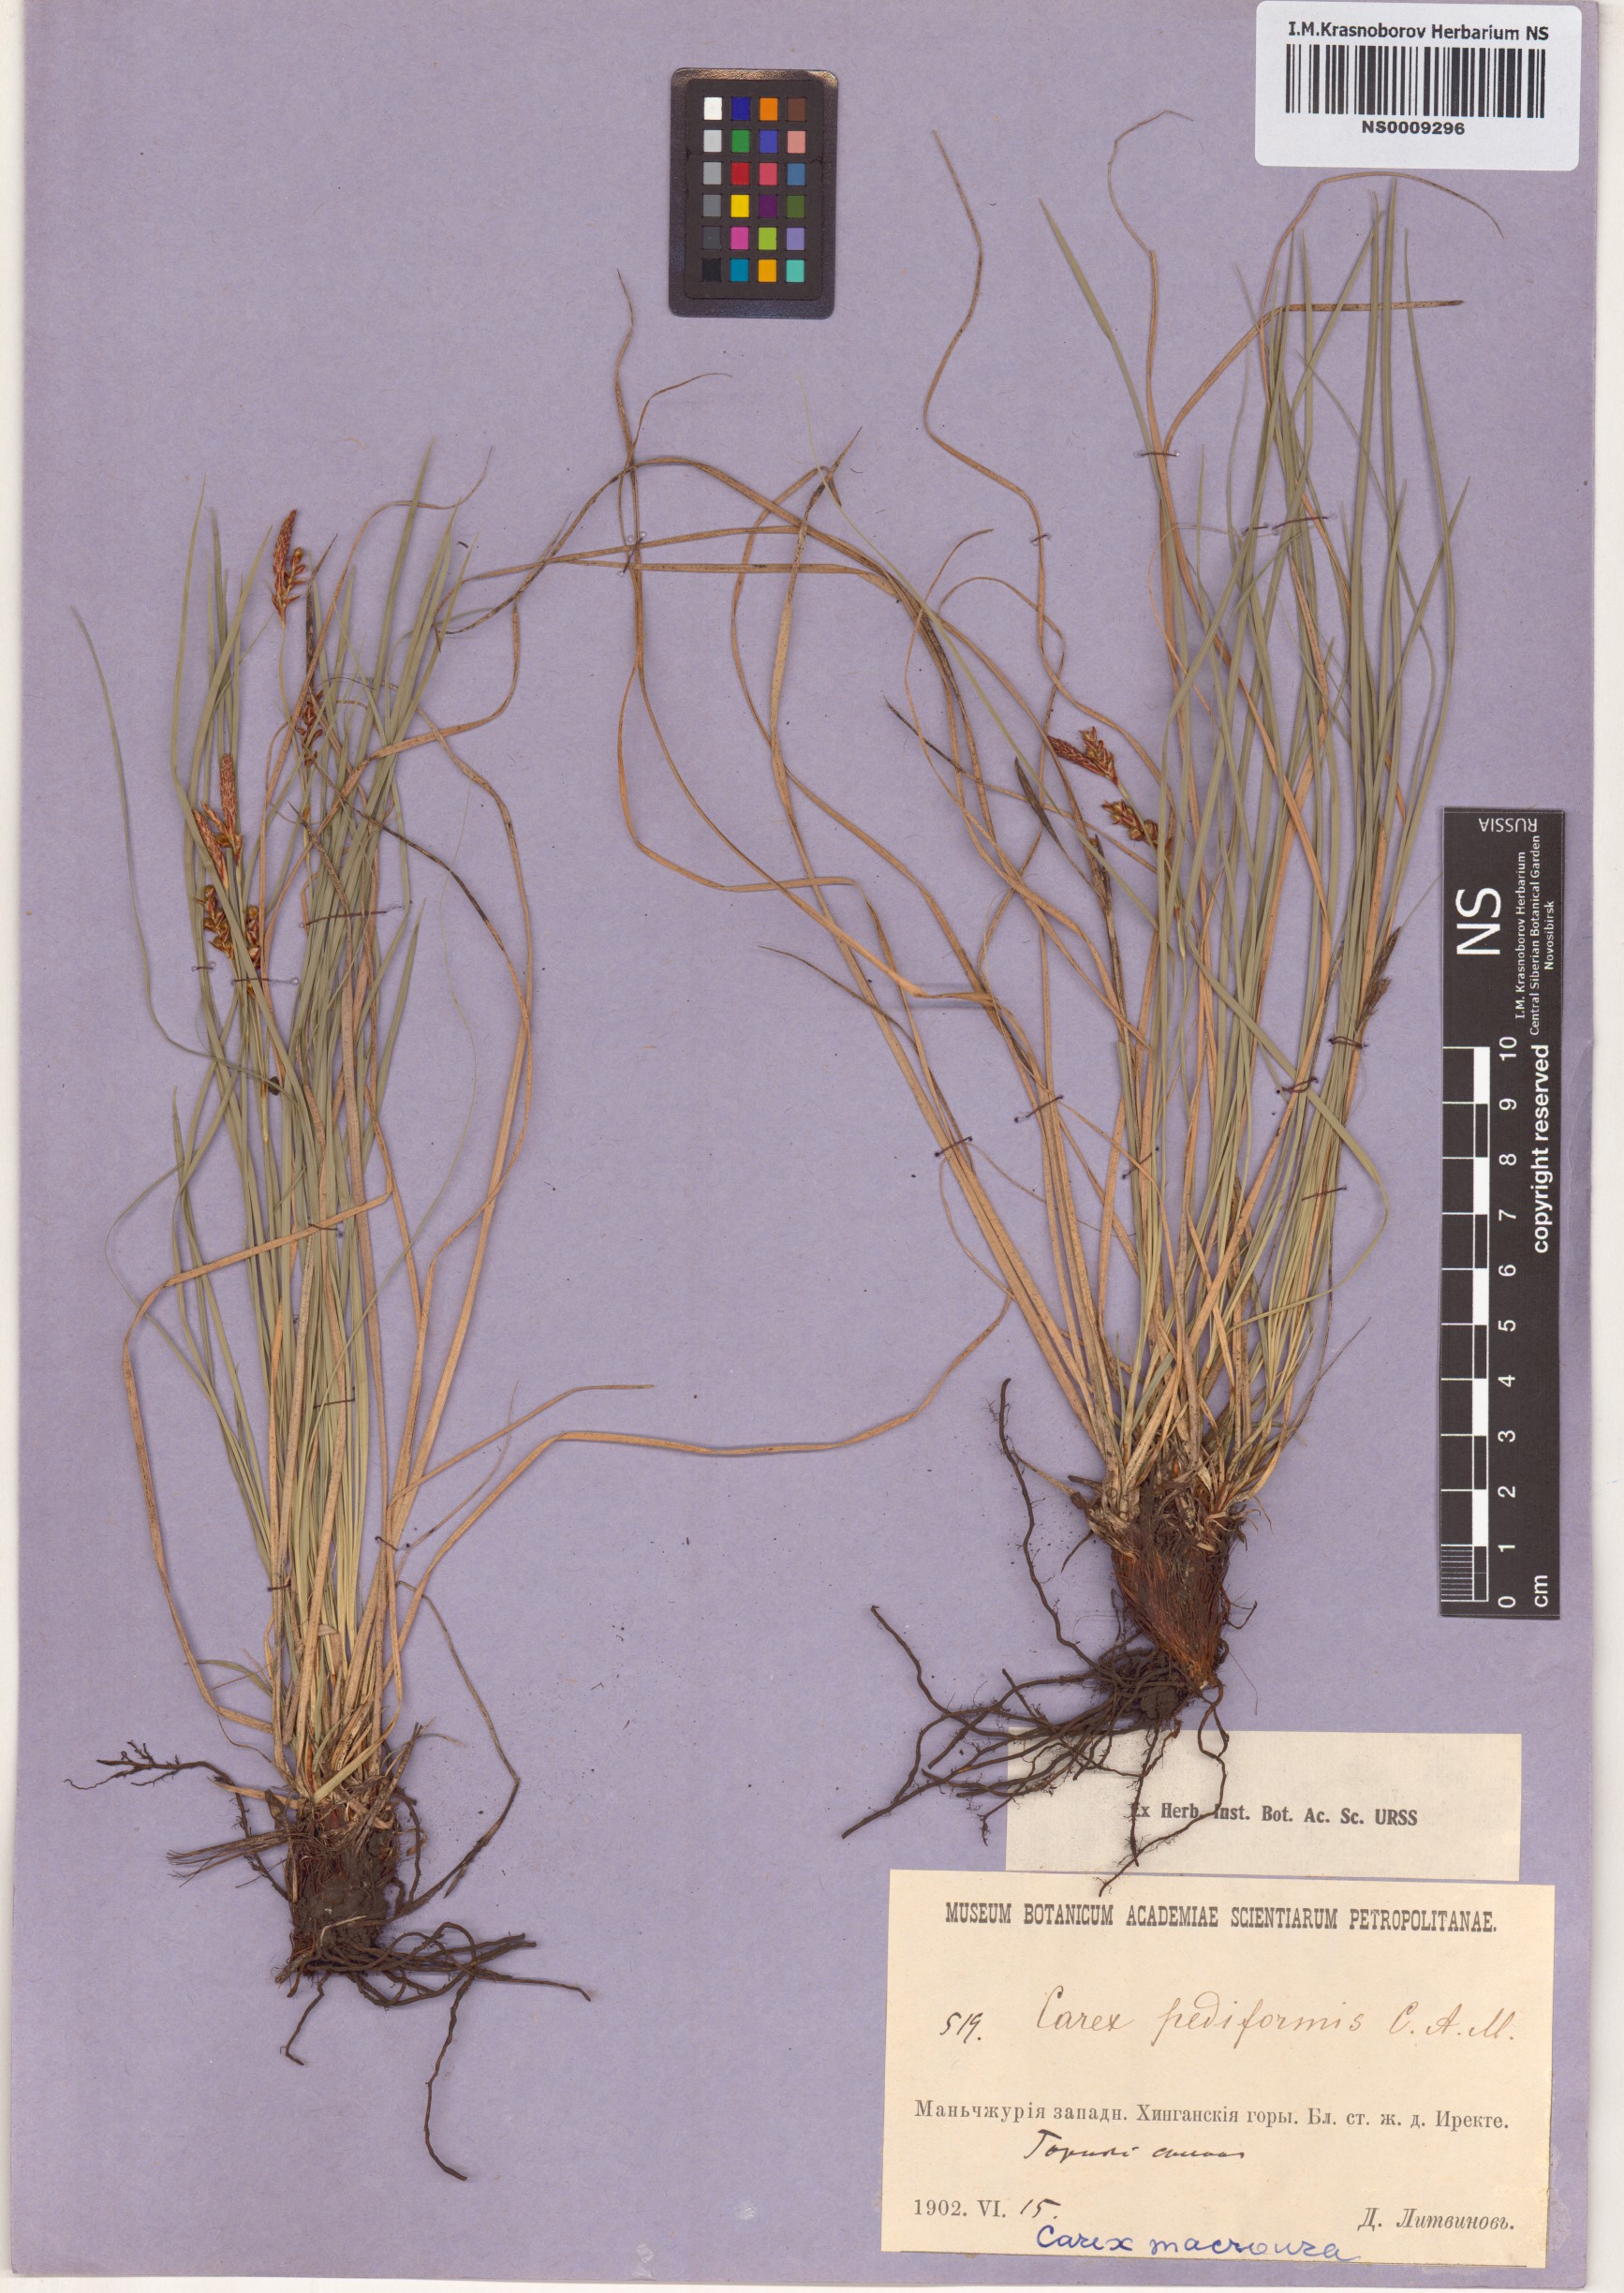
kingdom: Plantae
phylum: Tracheophyta
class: Liliopsida
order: Poales
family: Cyperaceae
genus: Carex
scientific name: Carex pediformis
